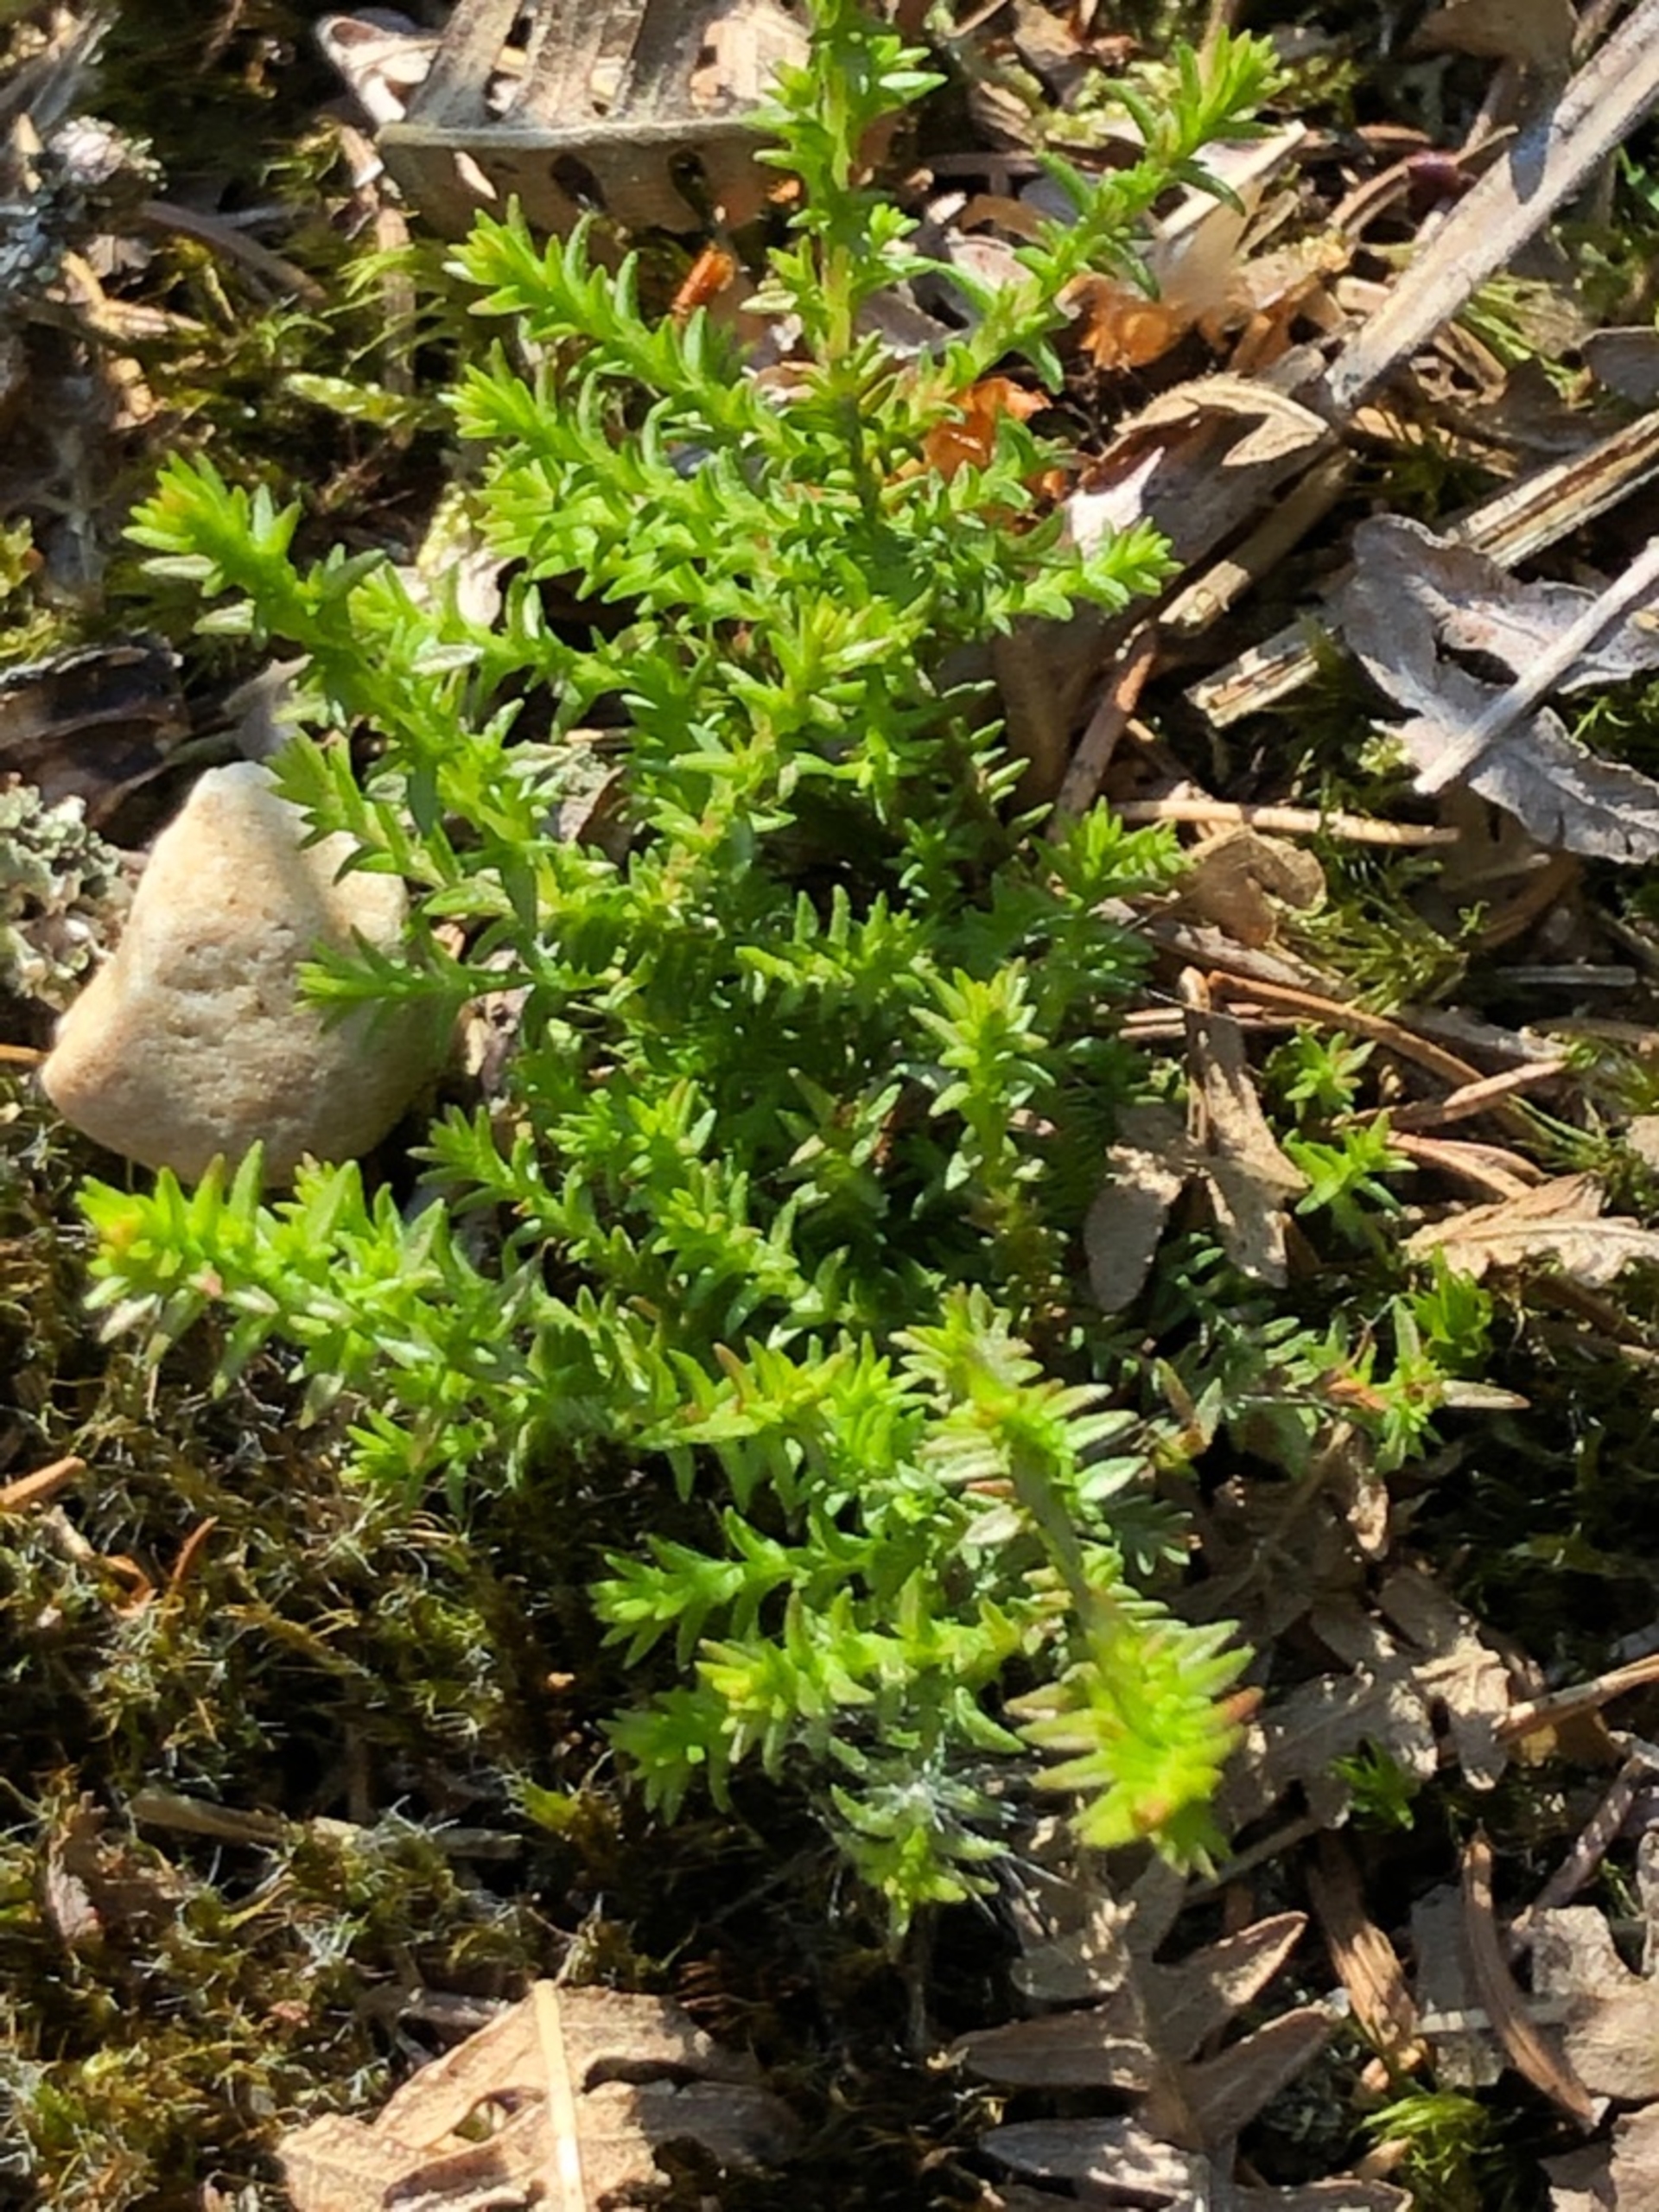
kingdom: Plantae
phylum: Tracheophyta
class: Magnoliopsida
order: Ericales
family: Ericaceae
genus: Calluna
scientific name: Calluna vulgaris
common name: Hedelyng
